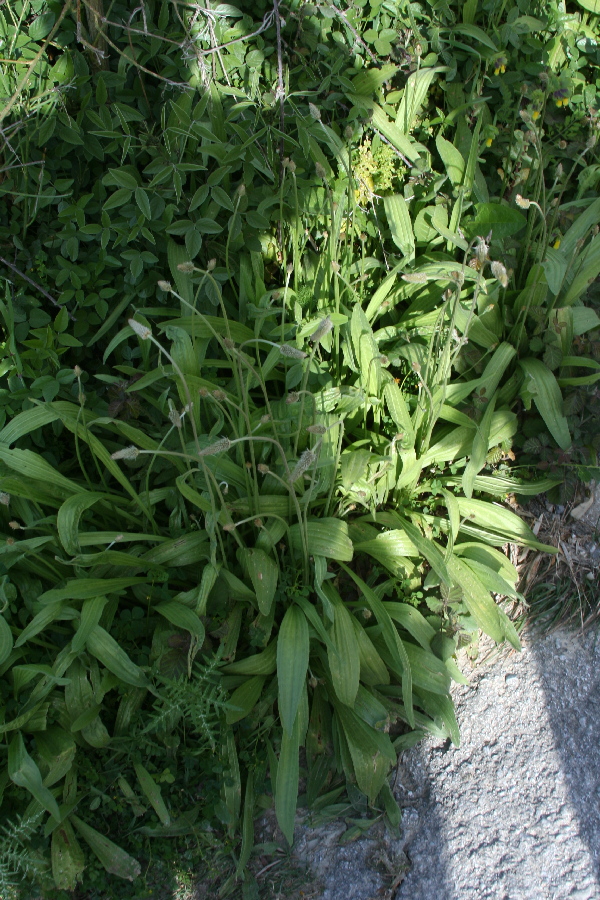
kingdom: Plantae
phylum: Tracheophyta
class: Magnoliopsida
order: Lamiales
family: Plantaginaceae
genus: Plantago
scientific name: Plantago lanceolata
